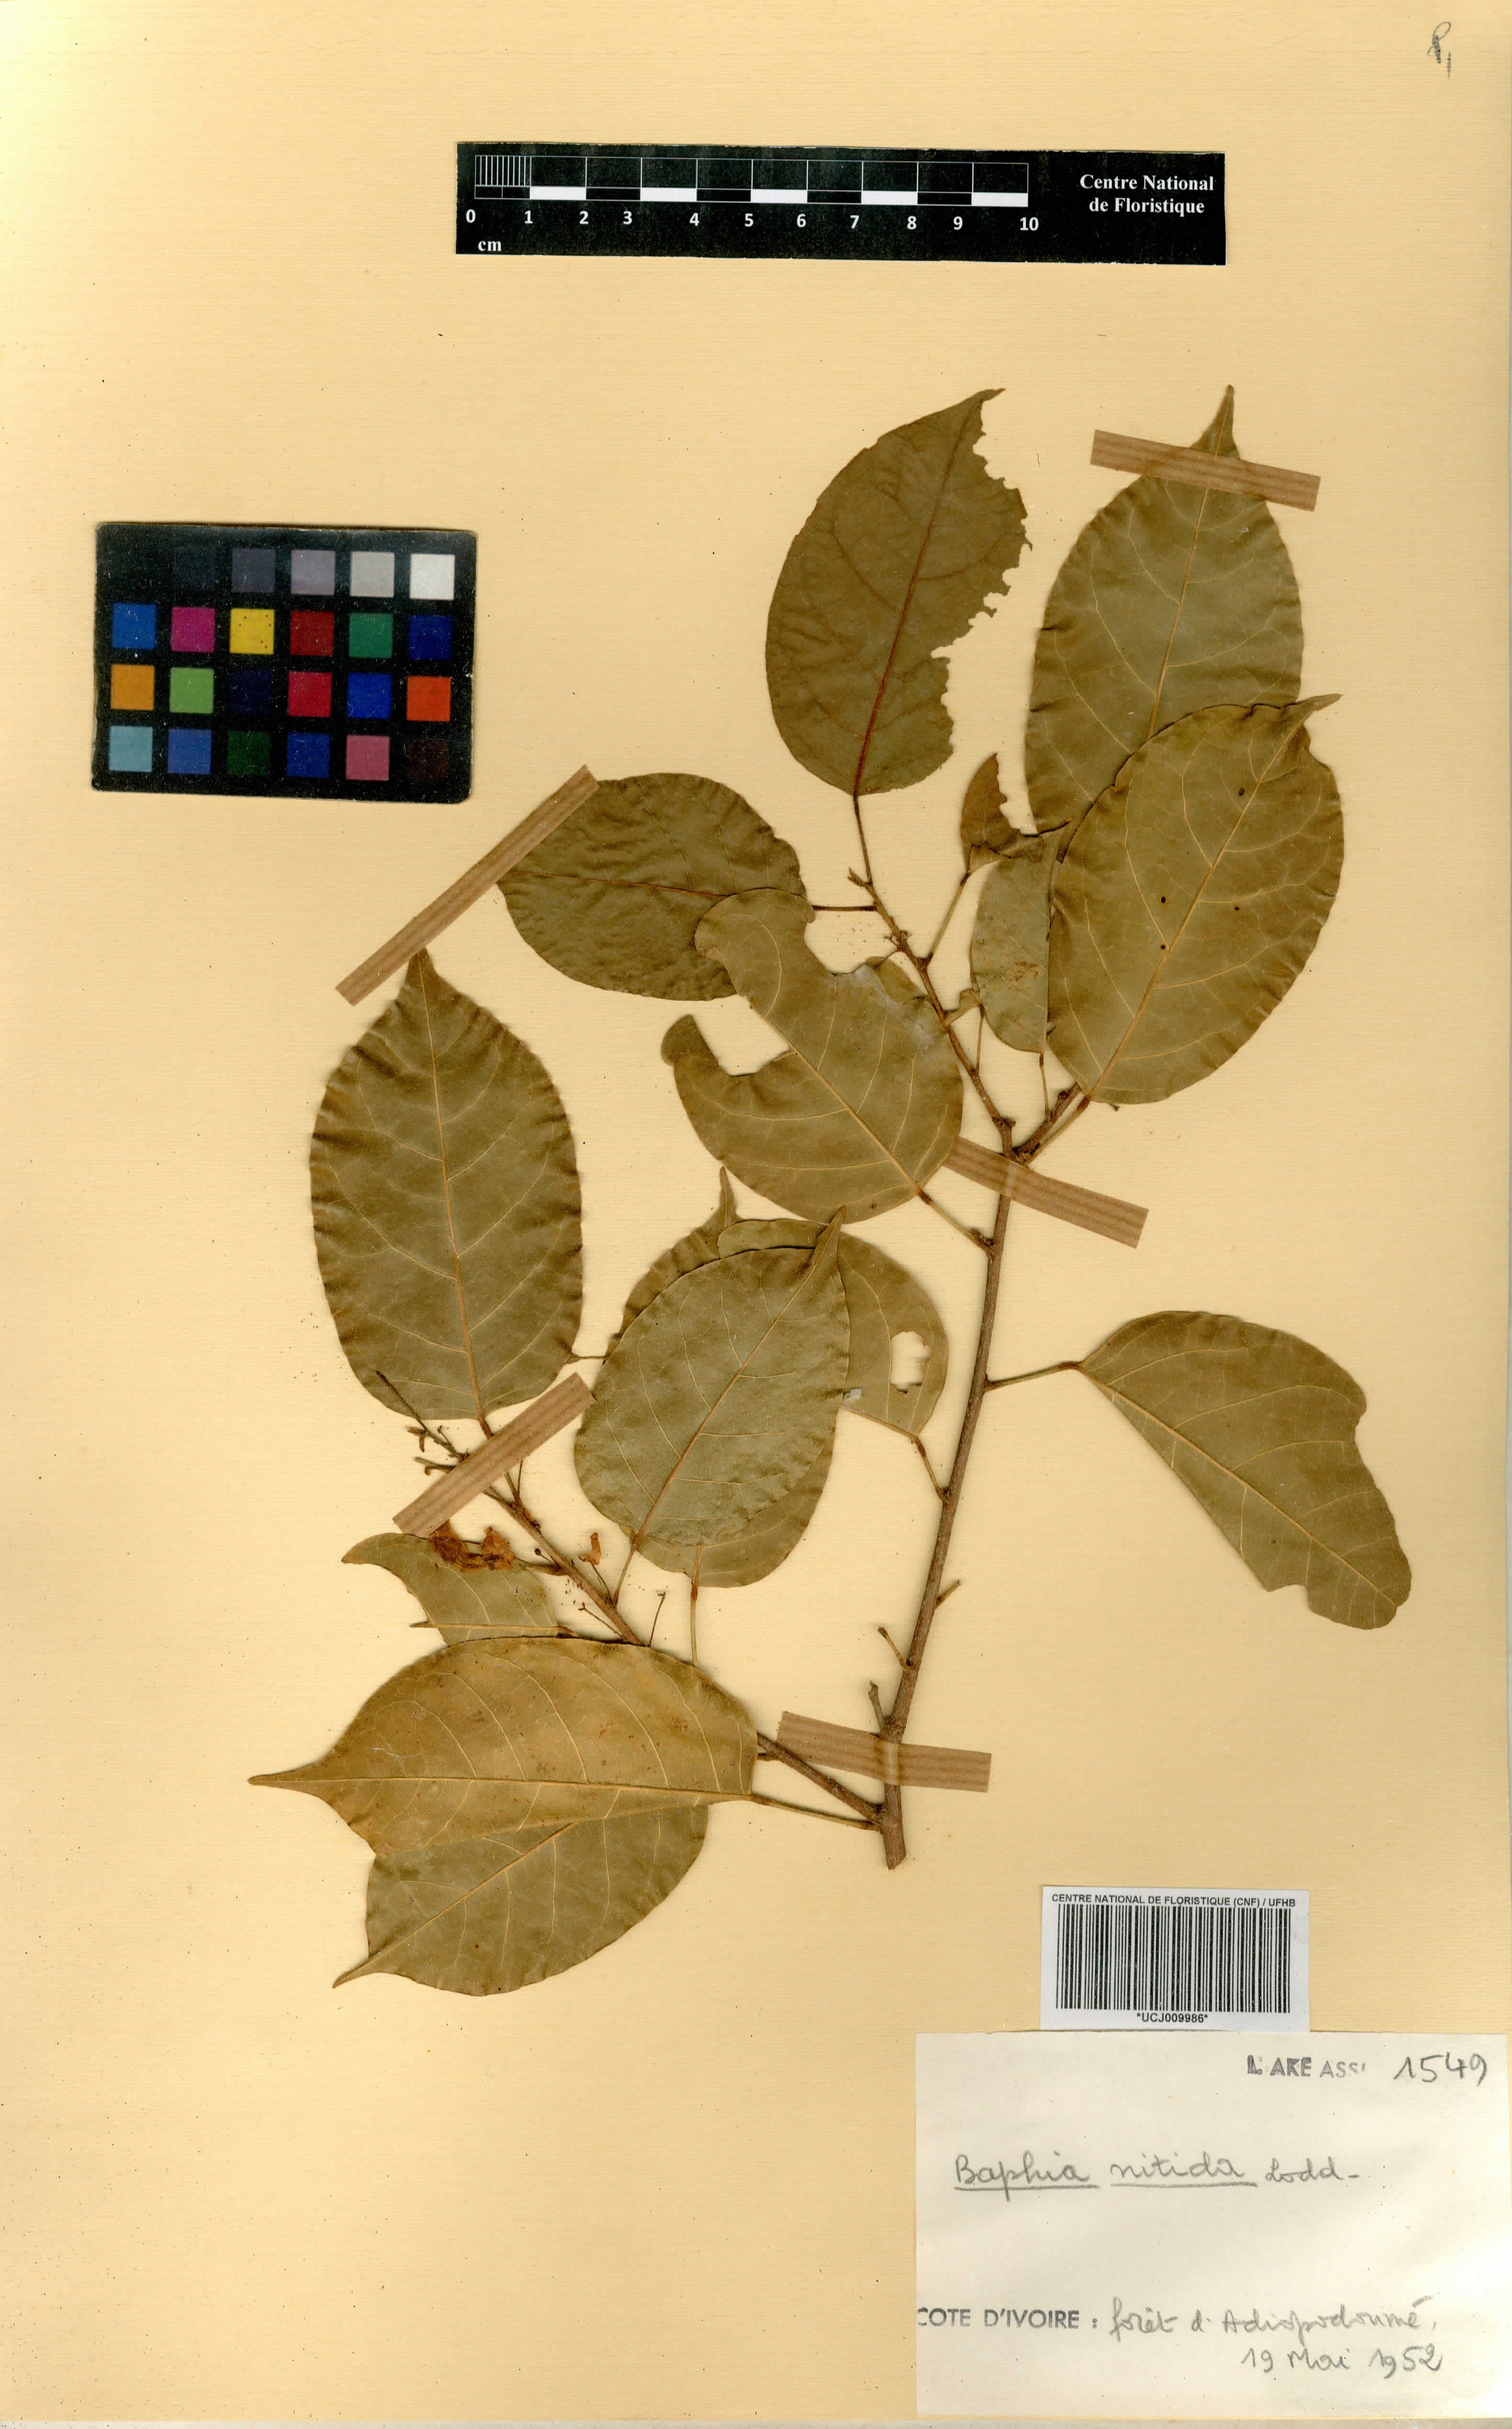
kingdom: Plantae
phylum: Tracheophyta
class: Magnoliopsida
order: Fabales
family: Fabaceae
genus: Baphia
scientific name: Baphia nitida
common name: Camwood
